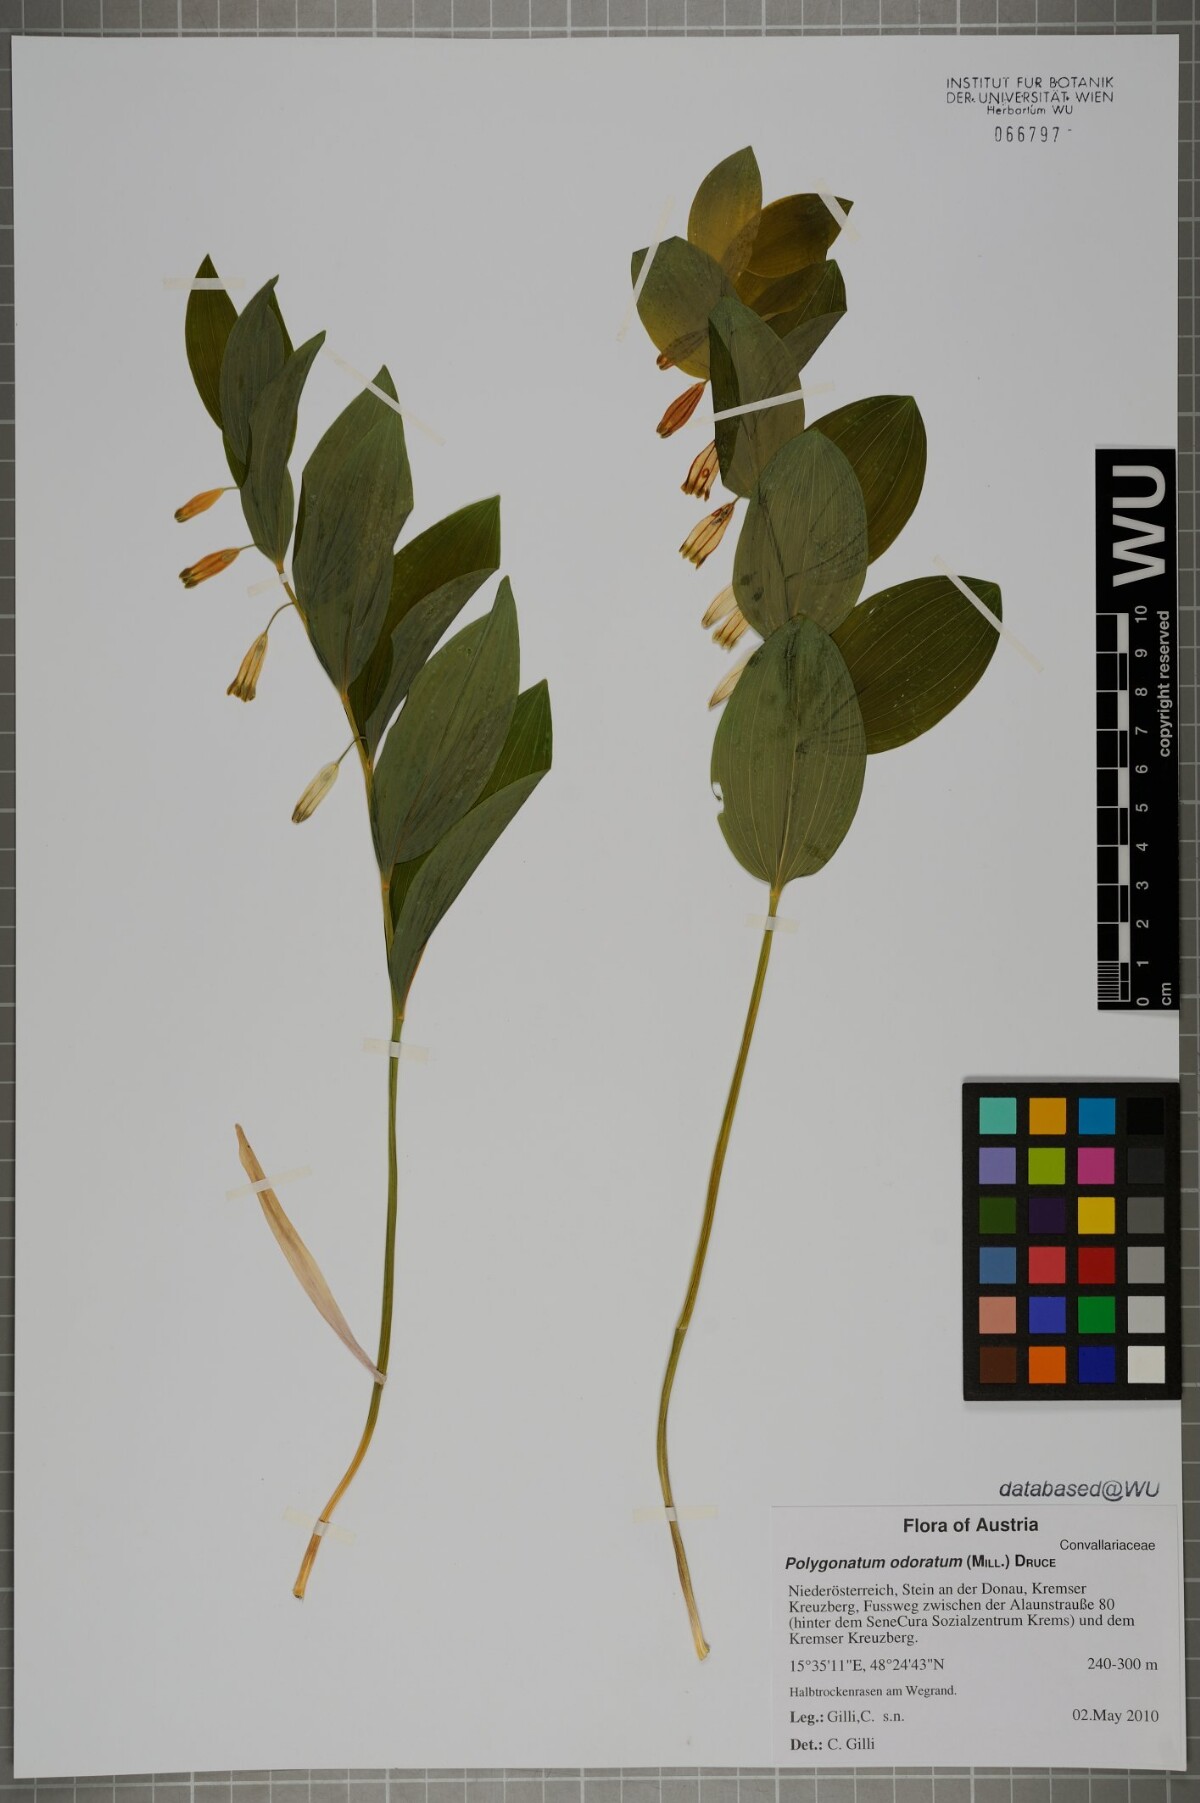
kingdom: Plantae
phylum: Tracheophyta
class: Liliopsida
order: Asparagales
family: Asparagaceae
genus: Polygonatum
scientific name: Polygonatum odoratum
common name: Angular solomon's-seal
